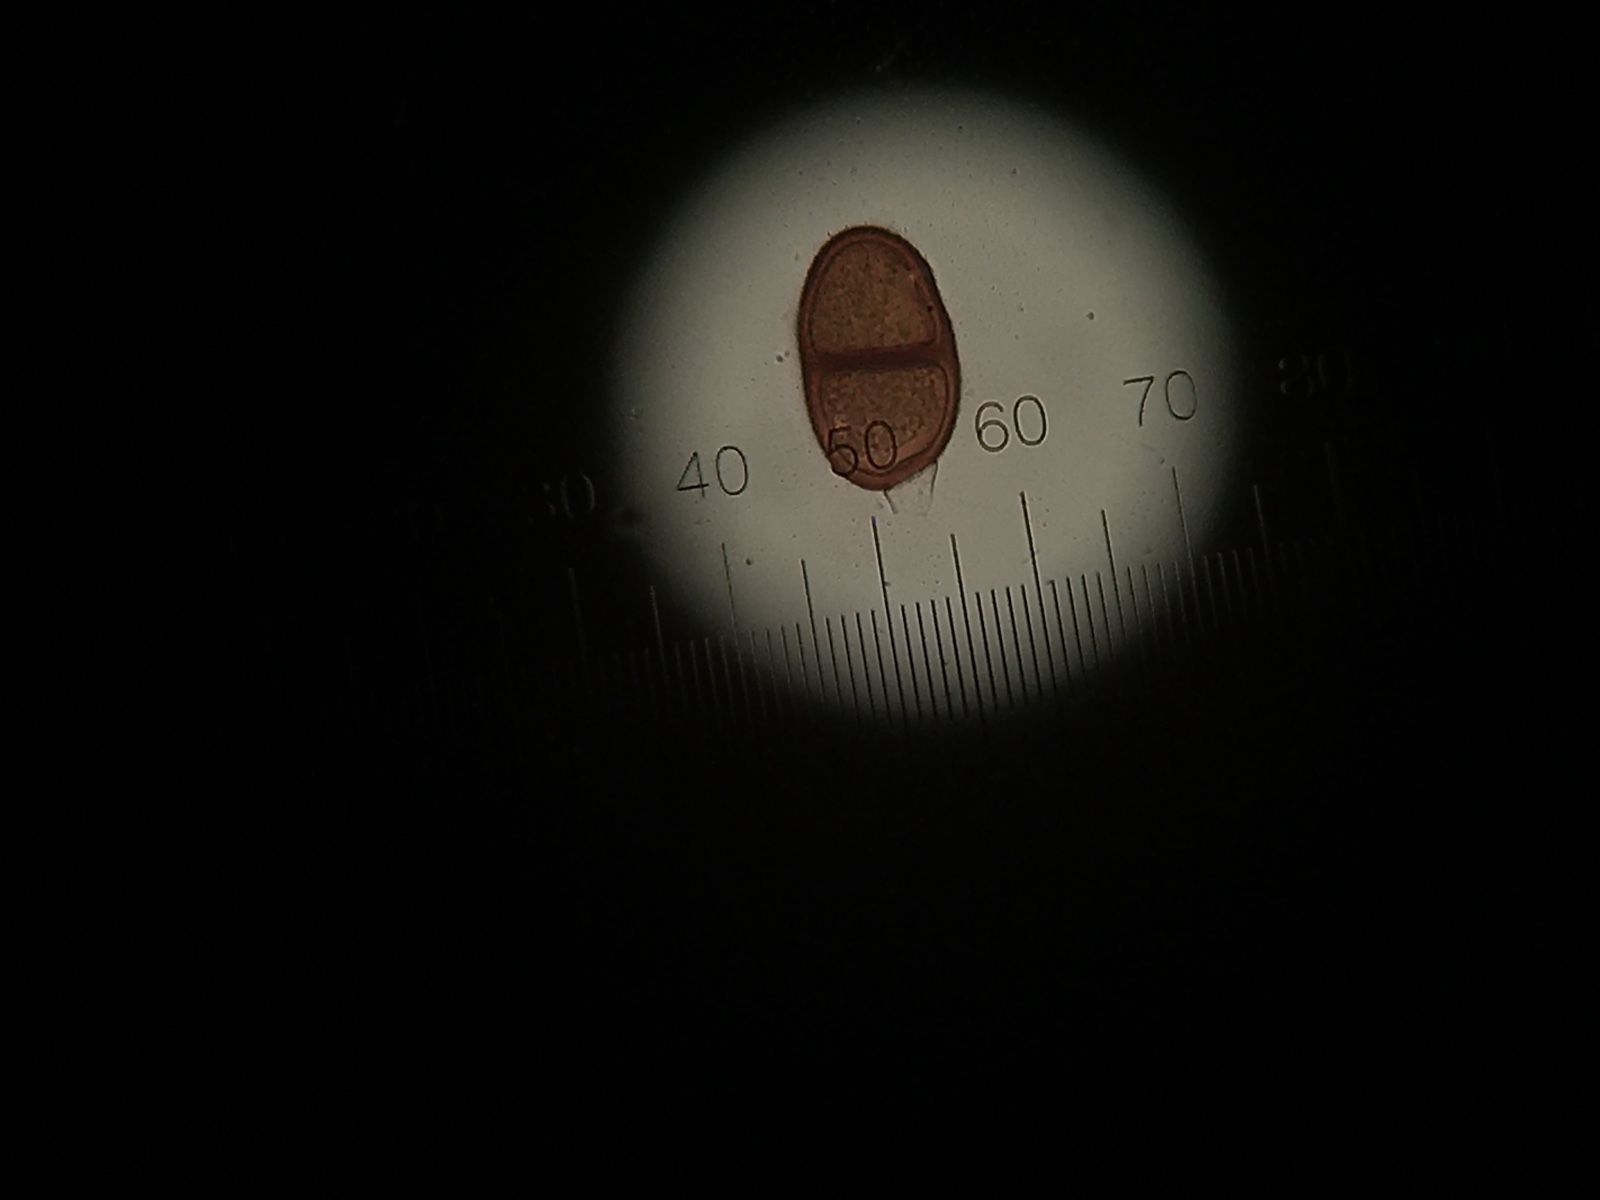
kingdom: Fungi
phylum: Basidiomycota
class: Pucciniomycetes
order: Pucciniales
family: Pucciniaceae
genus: Puccinia
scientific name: Puccinia cyani
